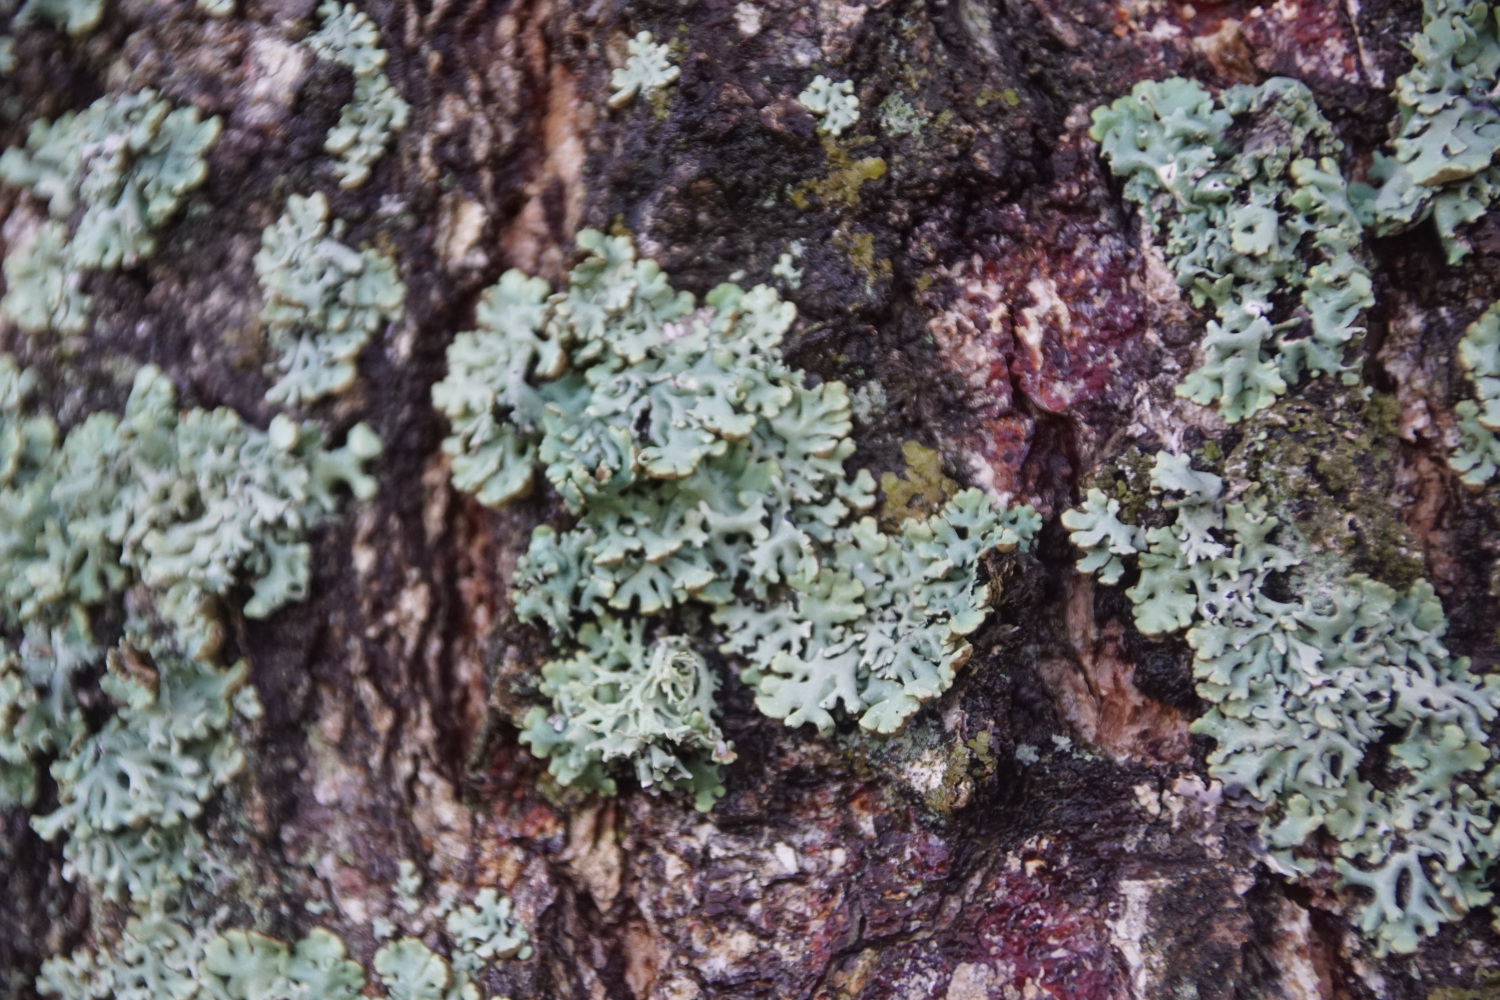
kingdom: Fungi
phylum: Ascomycota
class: Lecanoromycetes
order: Lecanorales
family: Parmeliaceae
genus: Hypogymnia
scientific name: Hypogymnia physodes
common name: almindelig kvistlav
